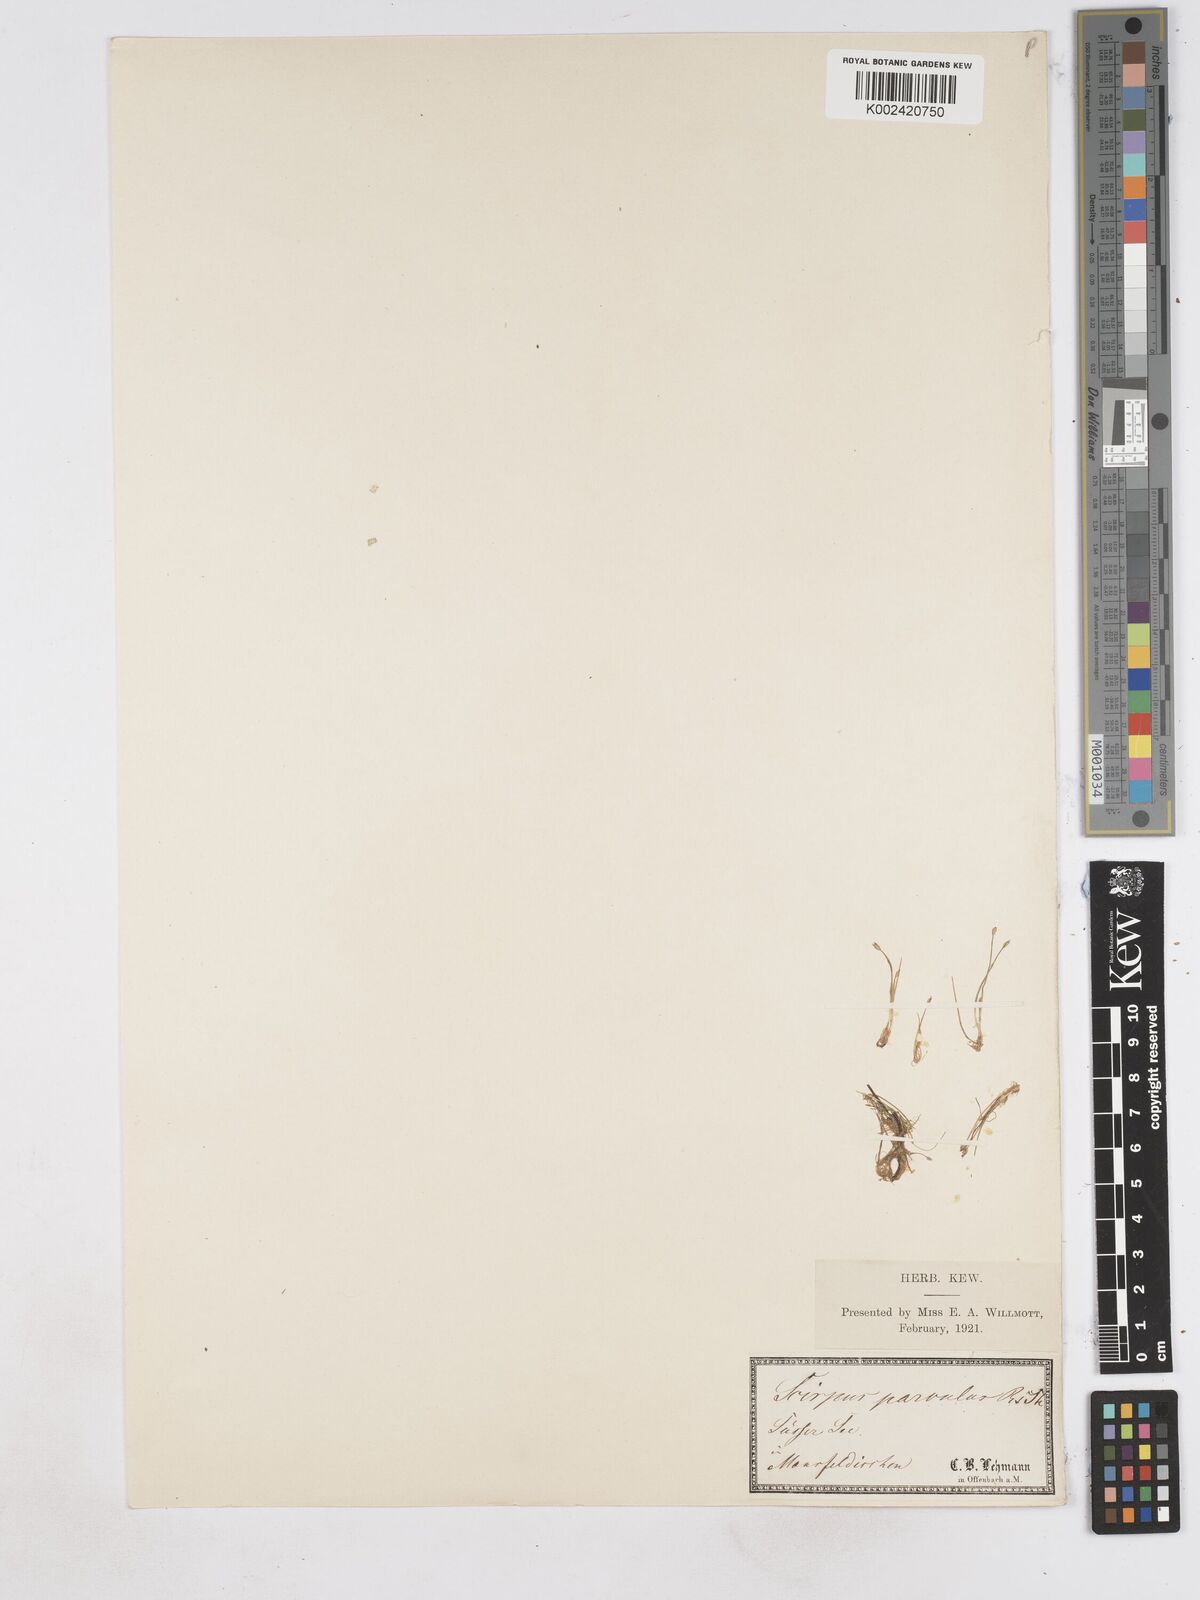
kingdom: Plantae
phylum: Tracheophyta
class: Liliopsida
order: Poales
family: Cyperaceae
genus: Eleocharis
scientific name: Eleocharis parvula
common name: Dwarf spike-rush
